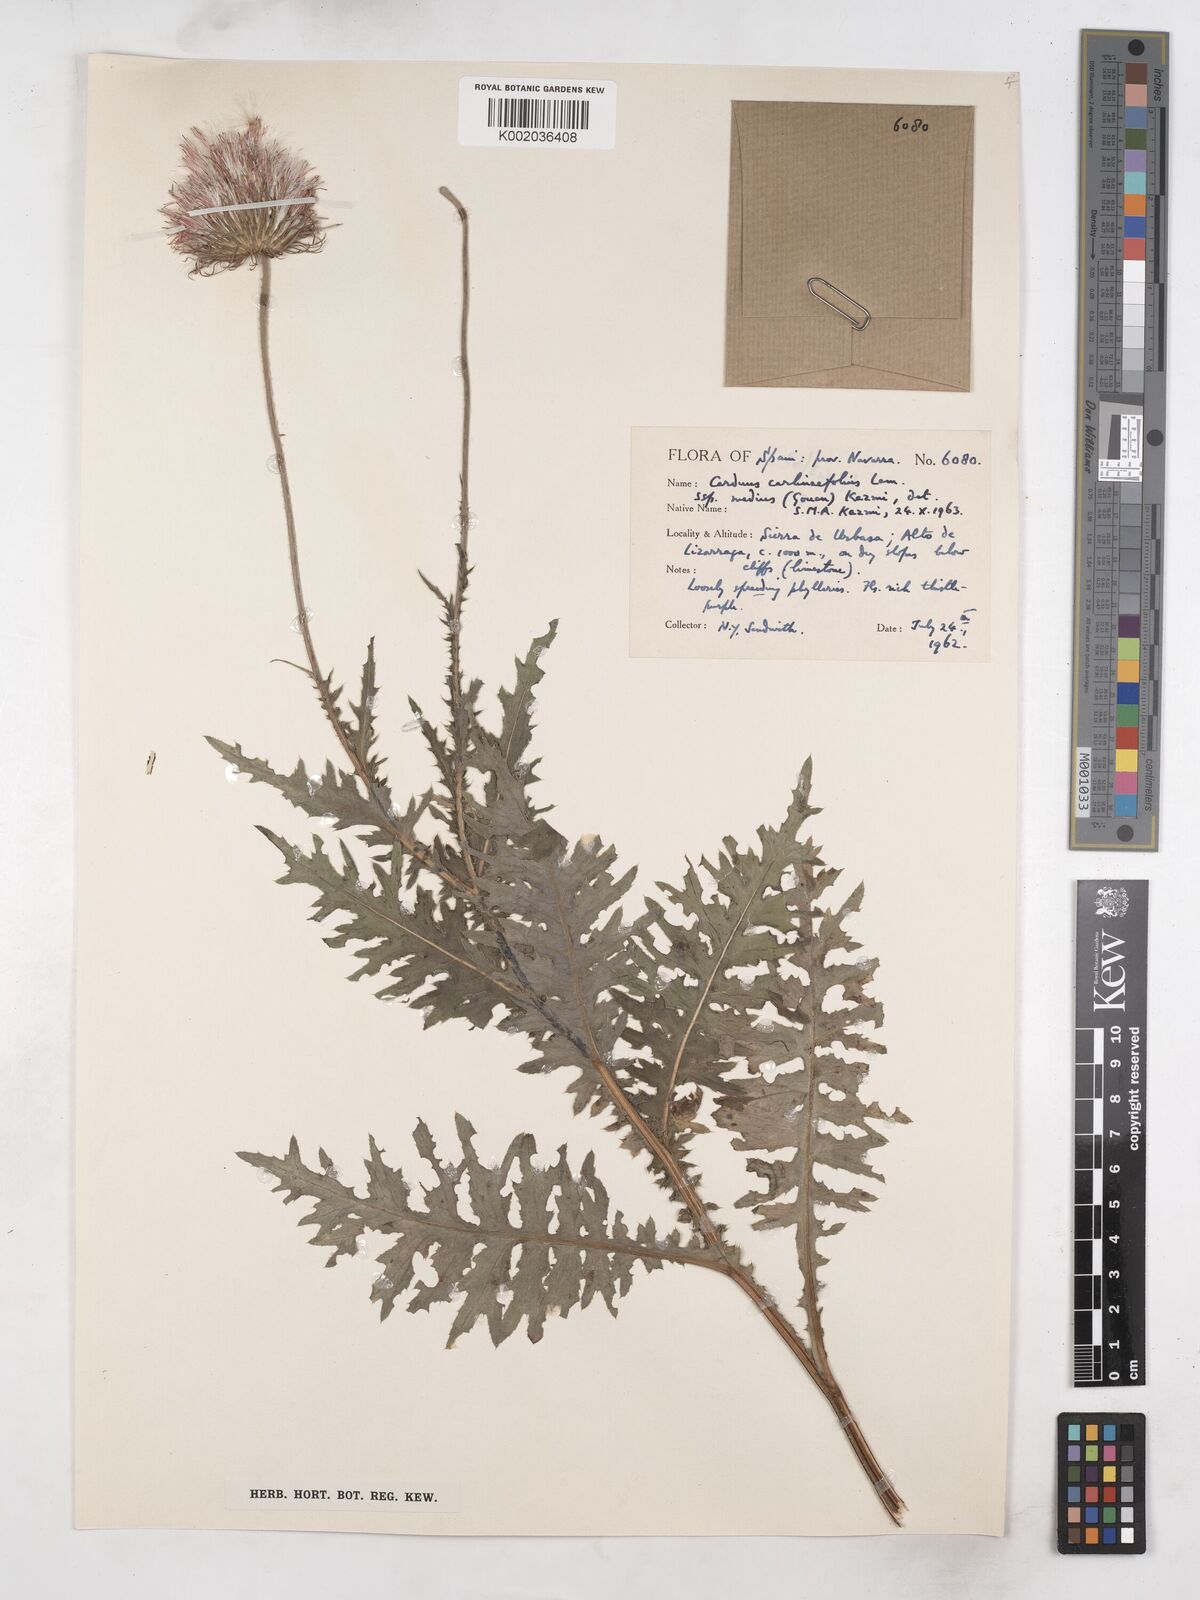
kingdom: Plantae
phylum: Tracheophyta
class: Magnoliopsida
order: Asterales
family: Asteraceae
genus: Carduus
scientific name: Carduus defloratus
